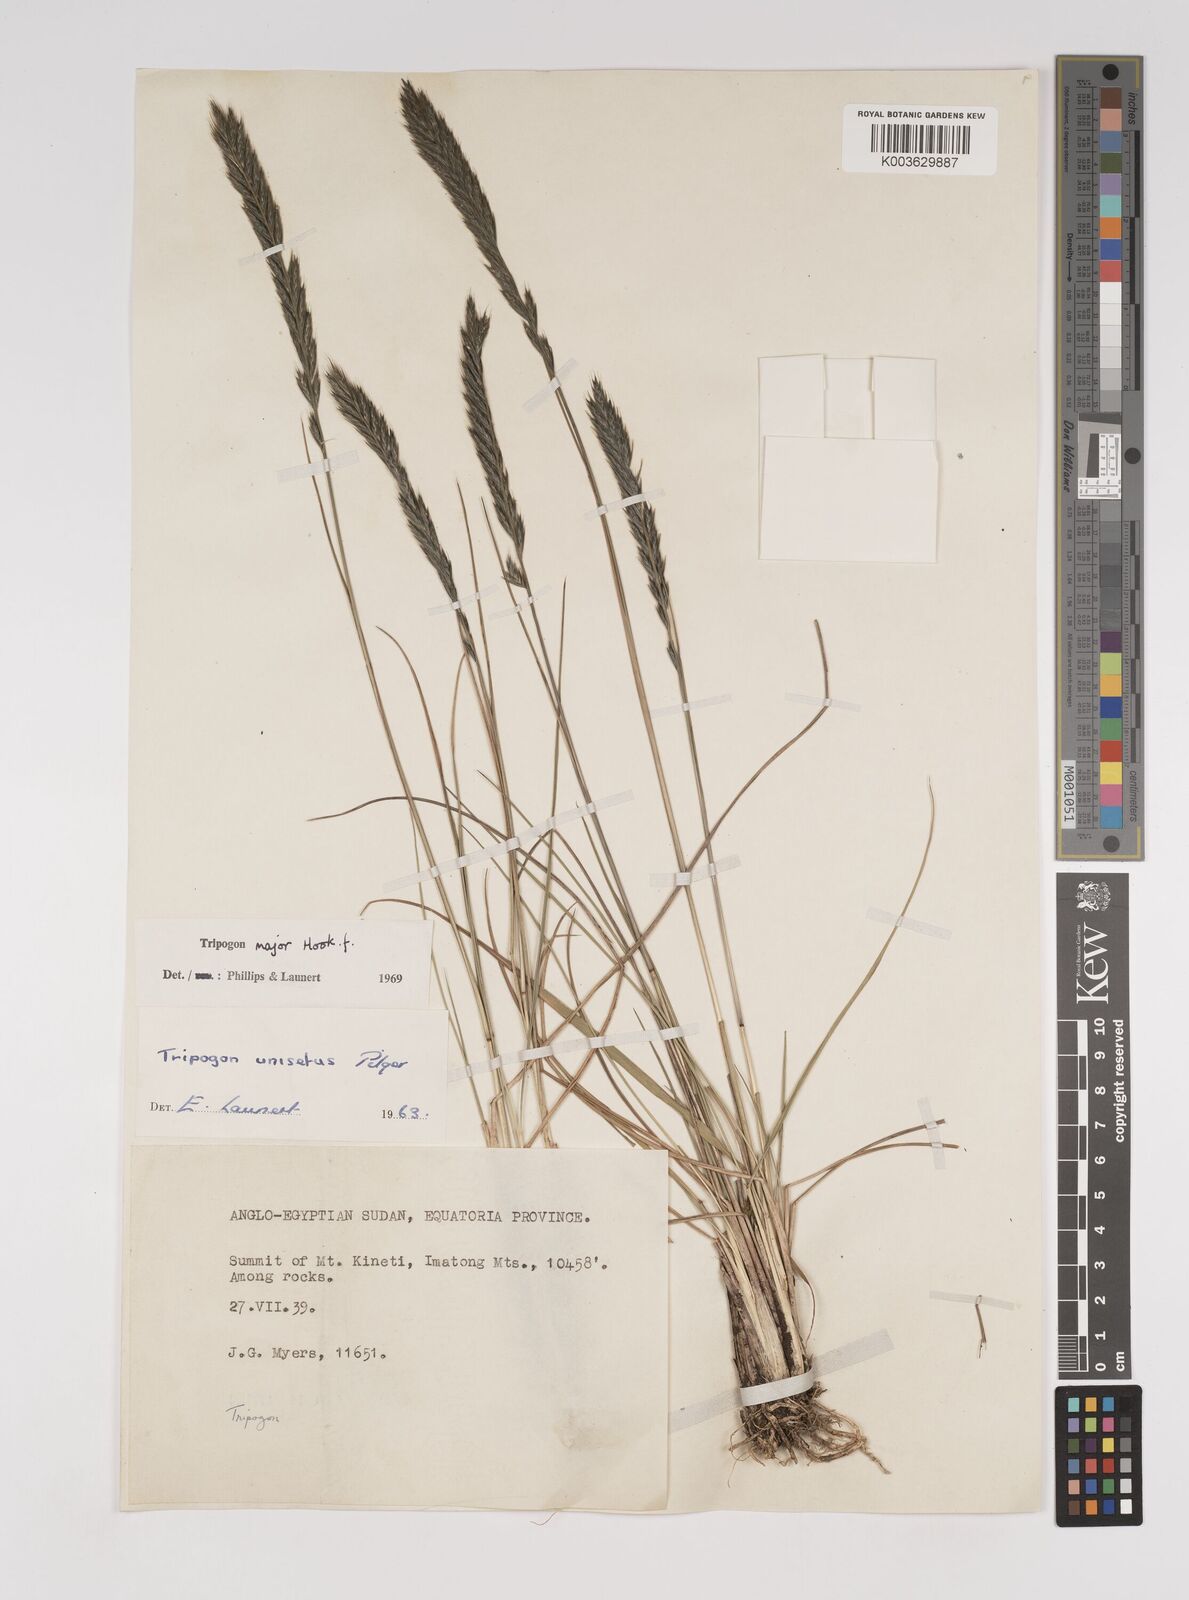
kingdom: Plantae
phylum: Tracheophyta
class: Liliopsida
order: Poales
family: Poaceae
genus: Tripogon
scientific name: Tripogon major
